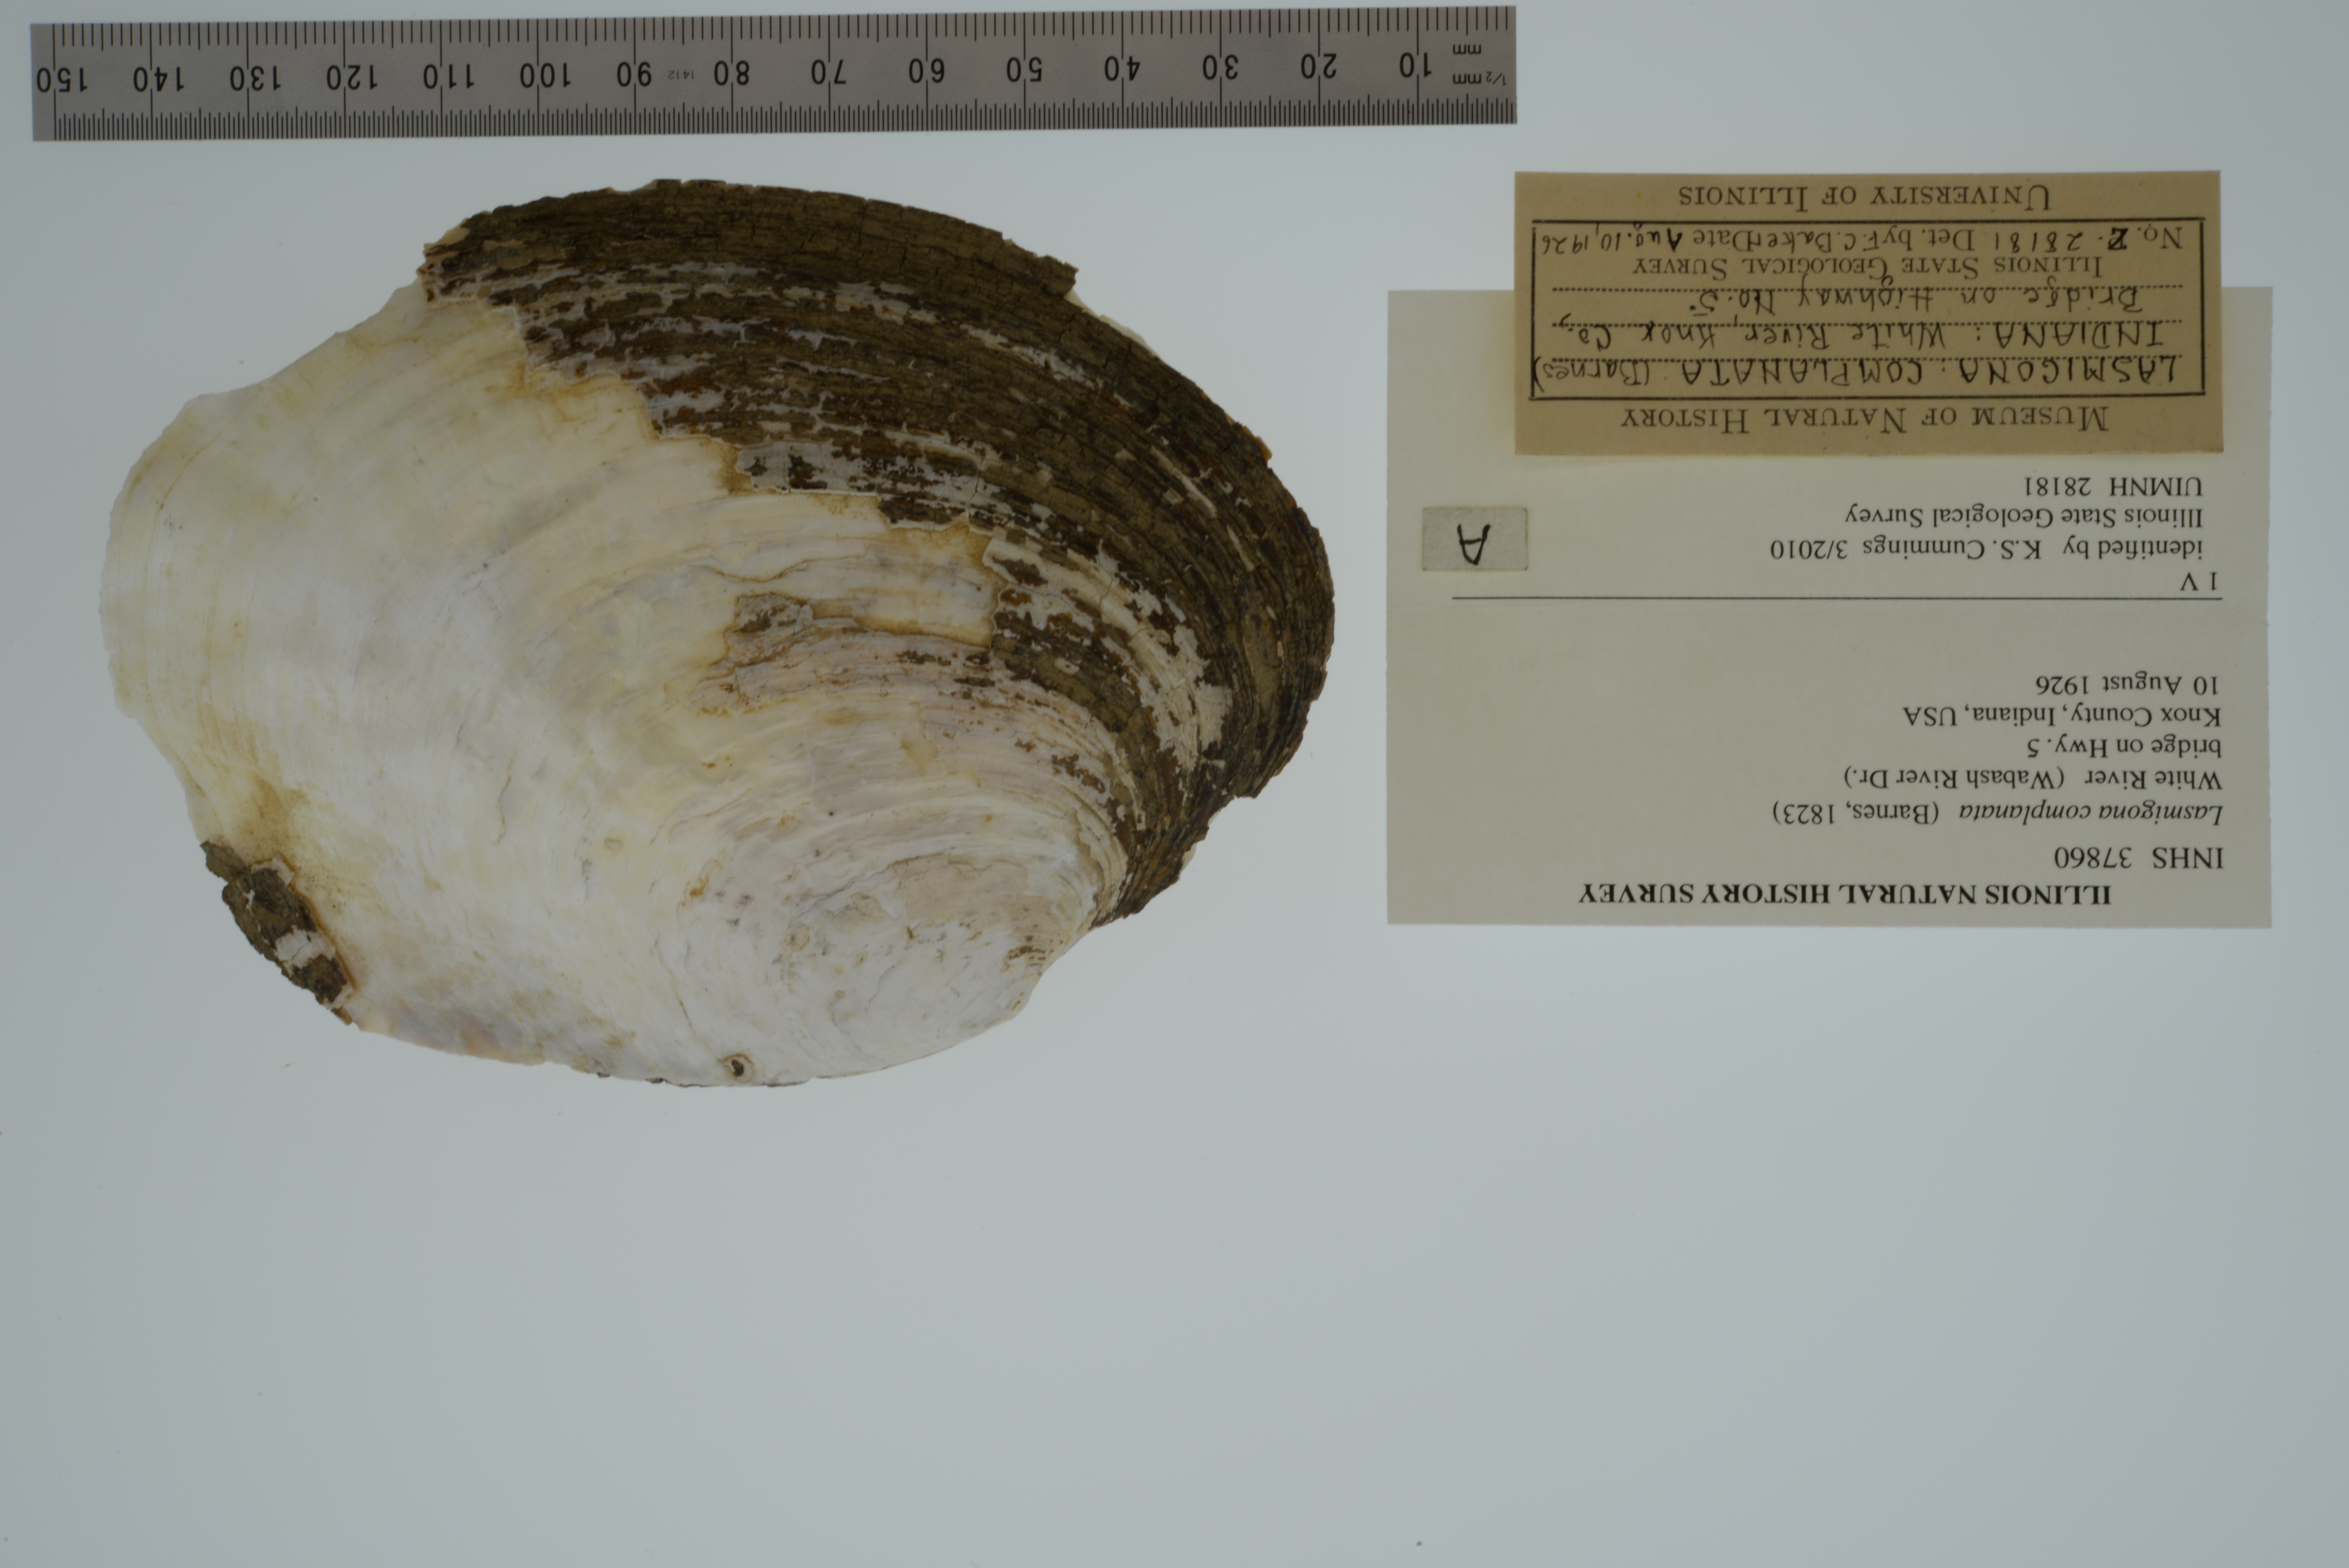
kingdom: Animalia
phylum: Mollusca
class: Bivalvia
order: Unionida
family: Unionidae
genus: Lasmigona
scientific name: Lasmigona complanata
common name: White heelsplitter
